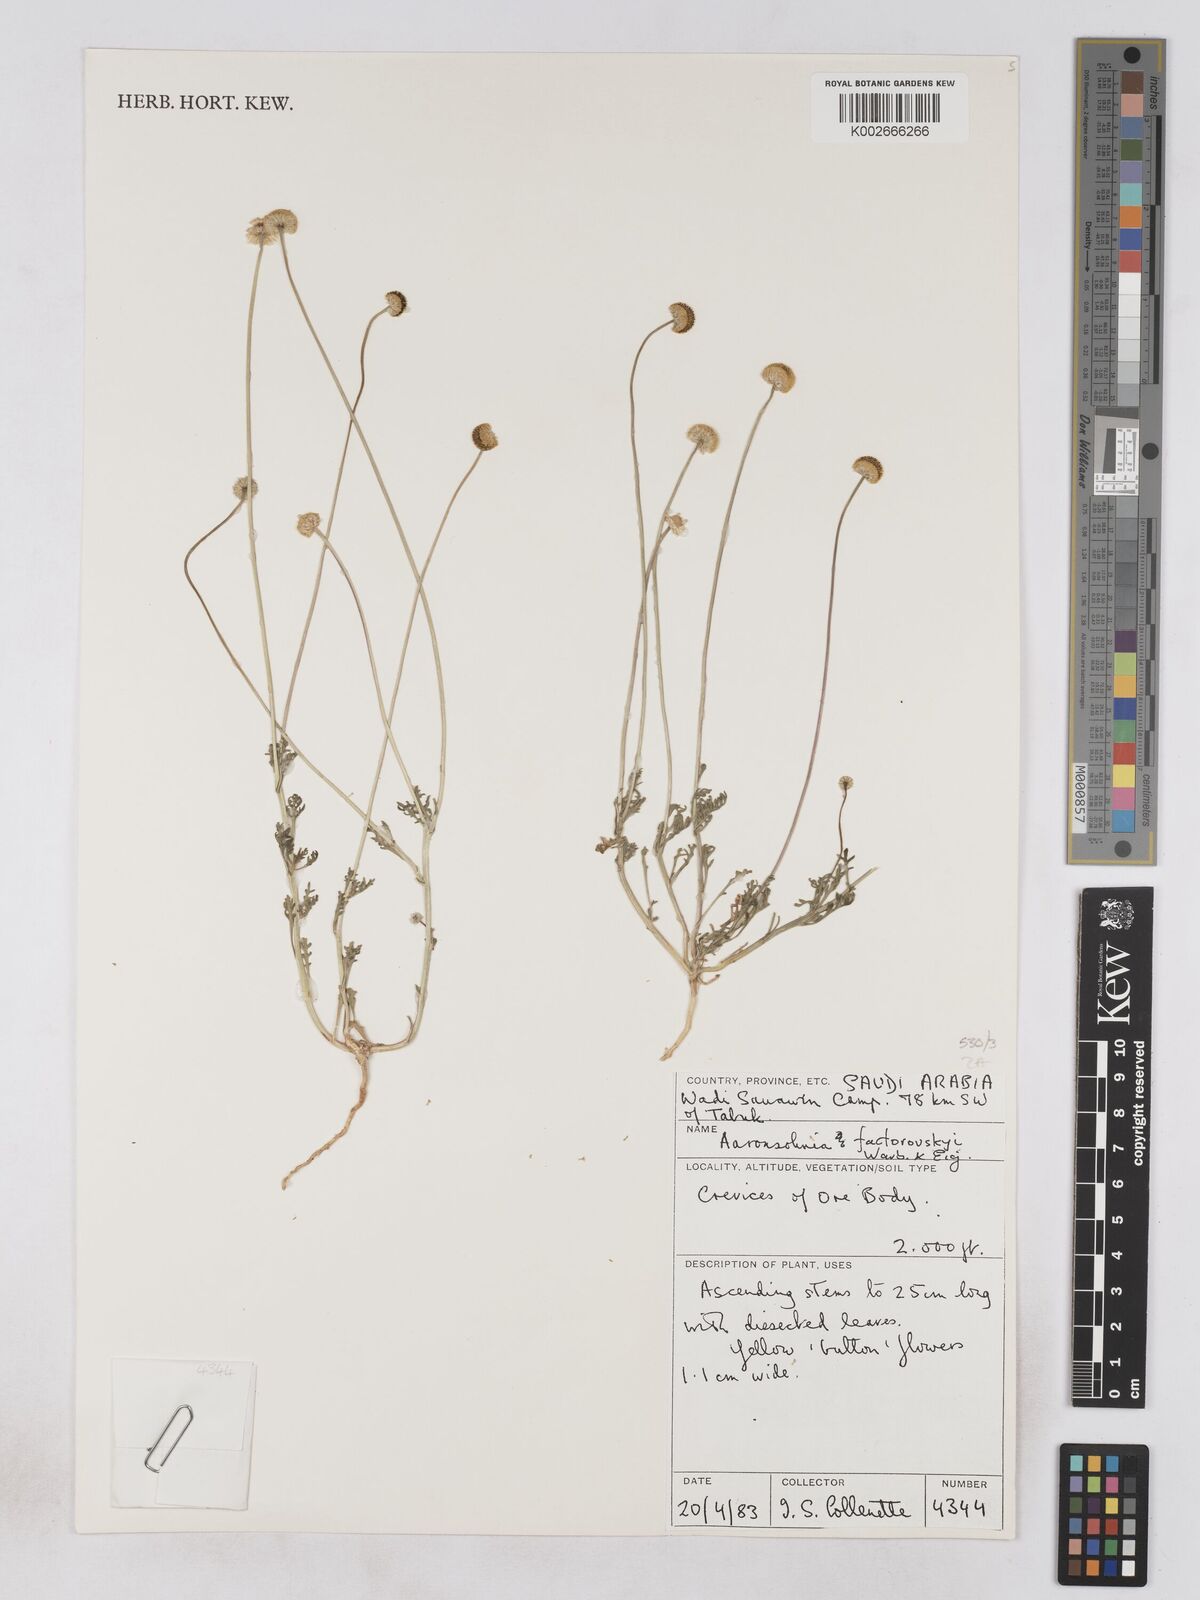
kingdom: Plantae
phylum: Tracheophyta
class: Magnoliopsida
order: Asterales
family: Asteraceae
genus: Otoglyphis
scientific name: Otoglyphis factorovskyi
